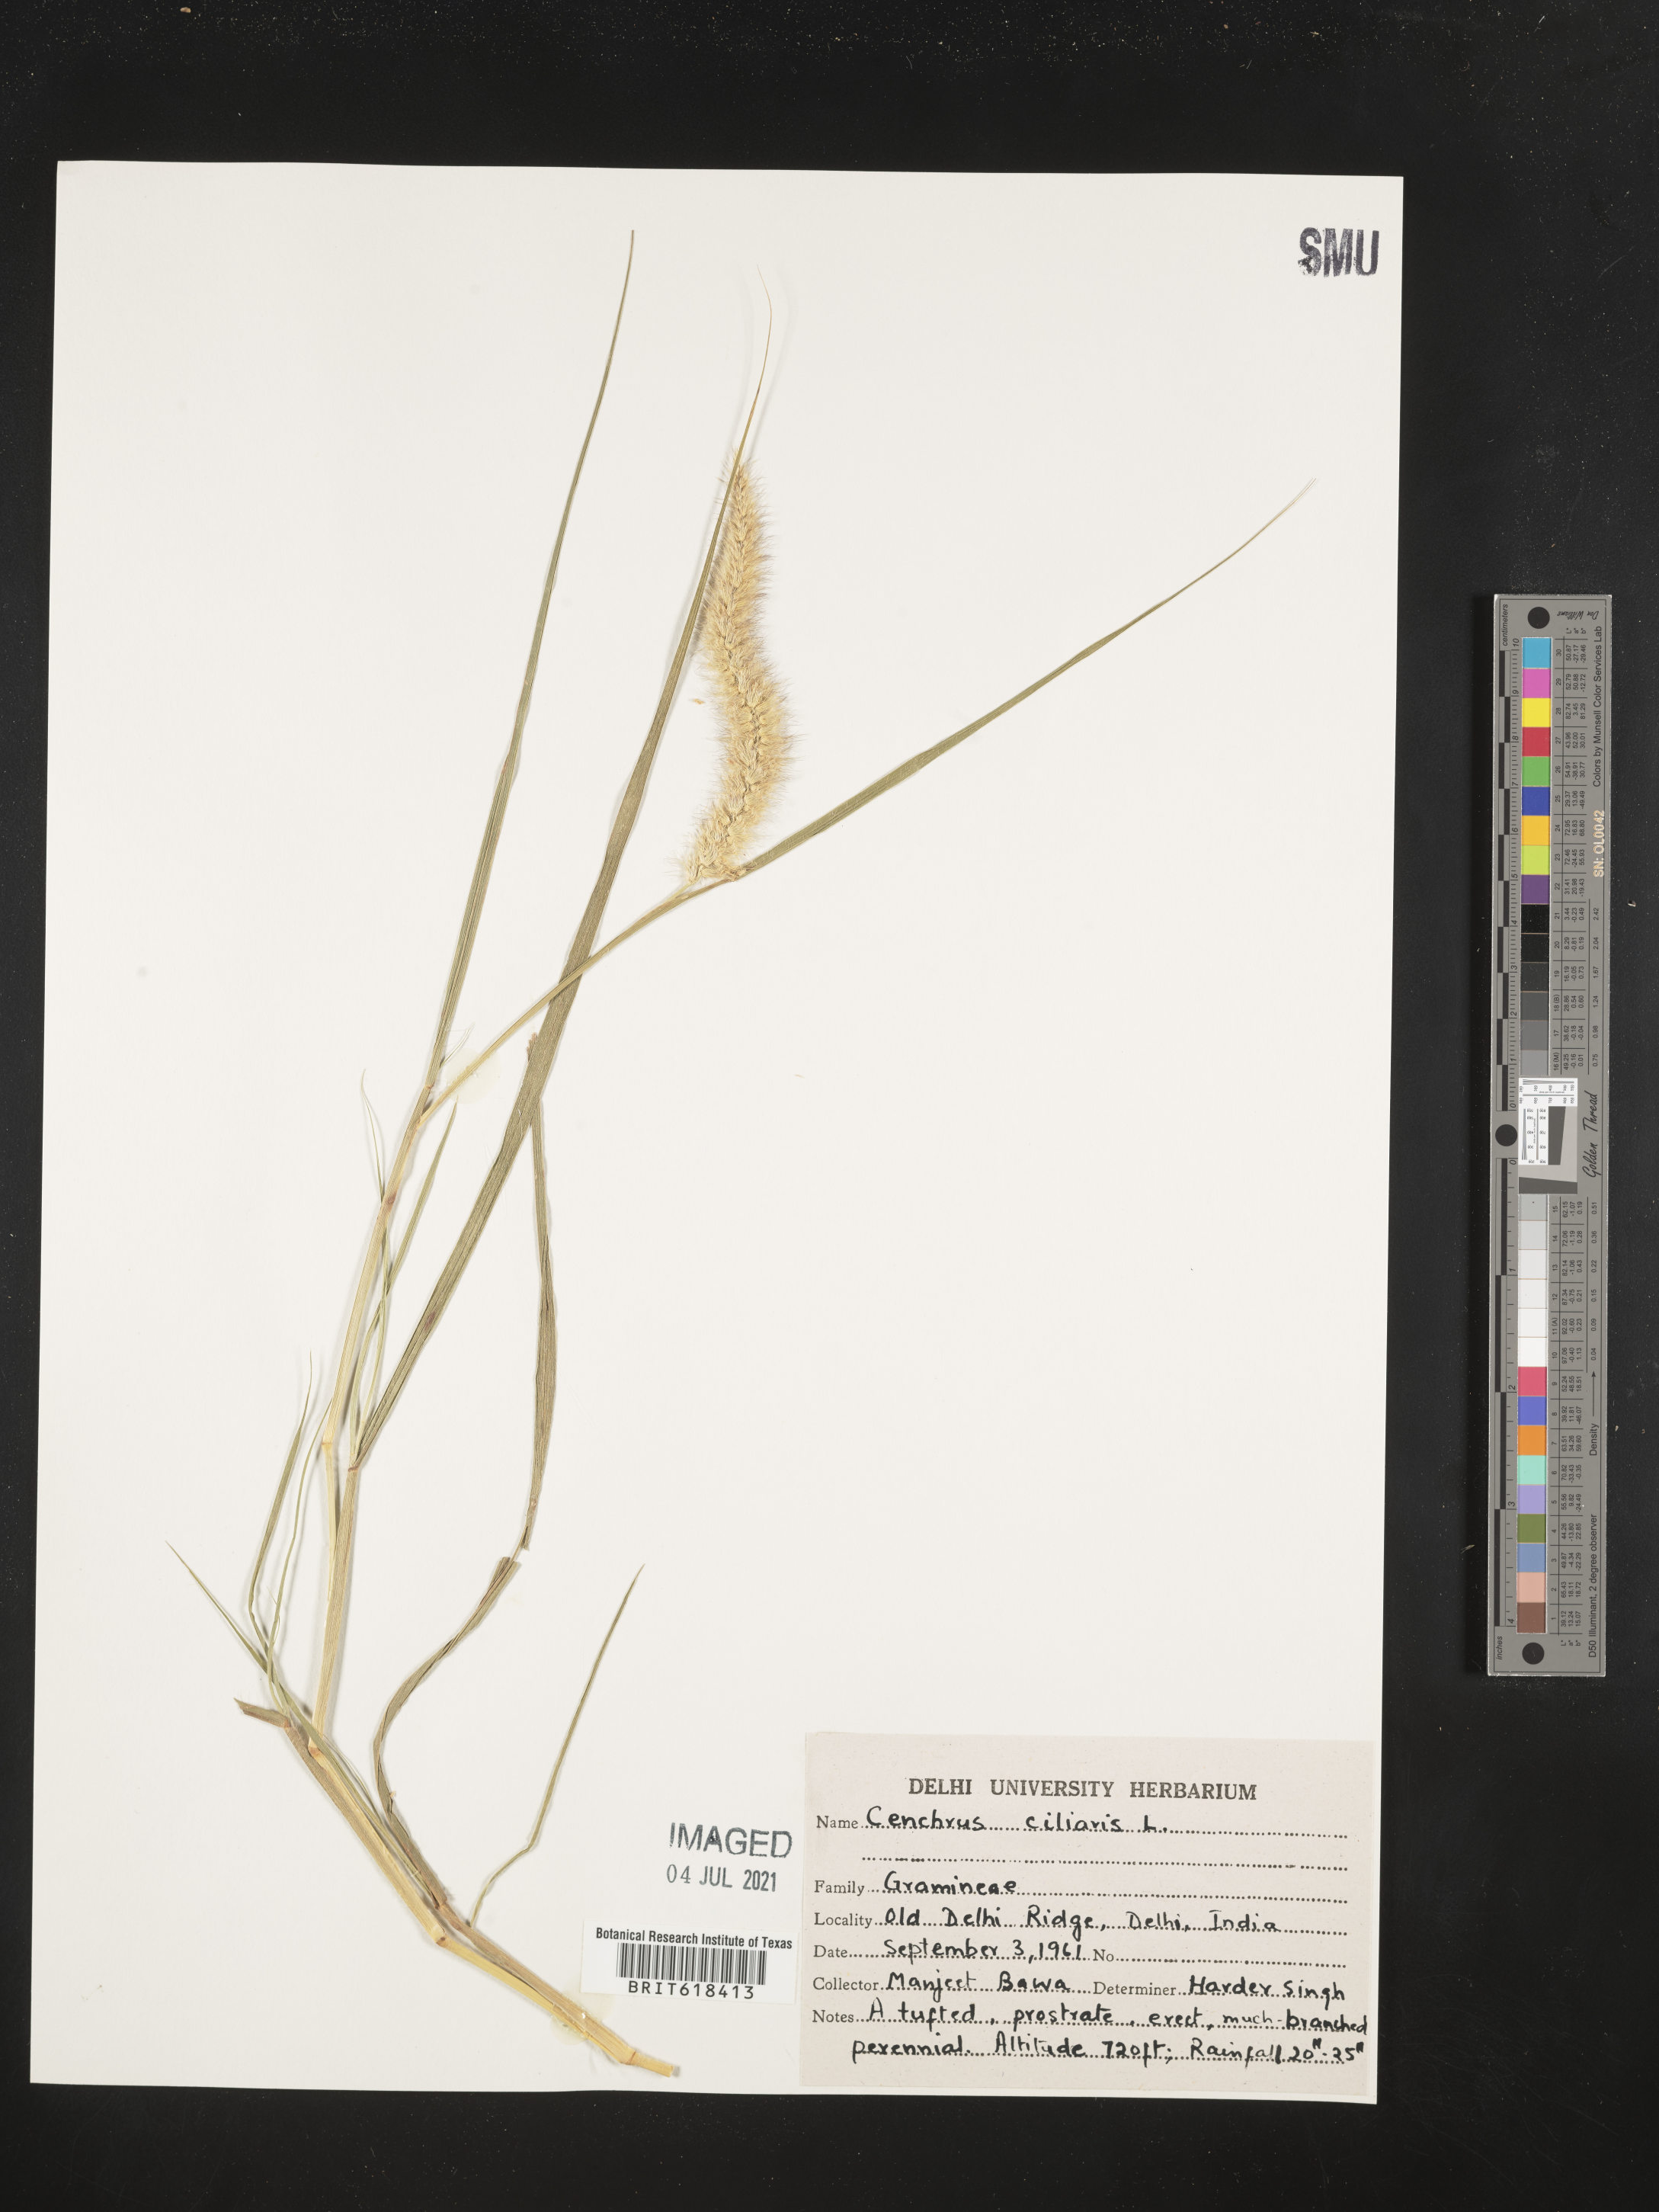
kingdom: Plantae
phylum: Tracheophyta
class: Liliopsida
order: Poales
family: Poaceae
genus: Cenchrus
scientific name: Cenchrus ciliaris
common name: Buffelgrass
